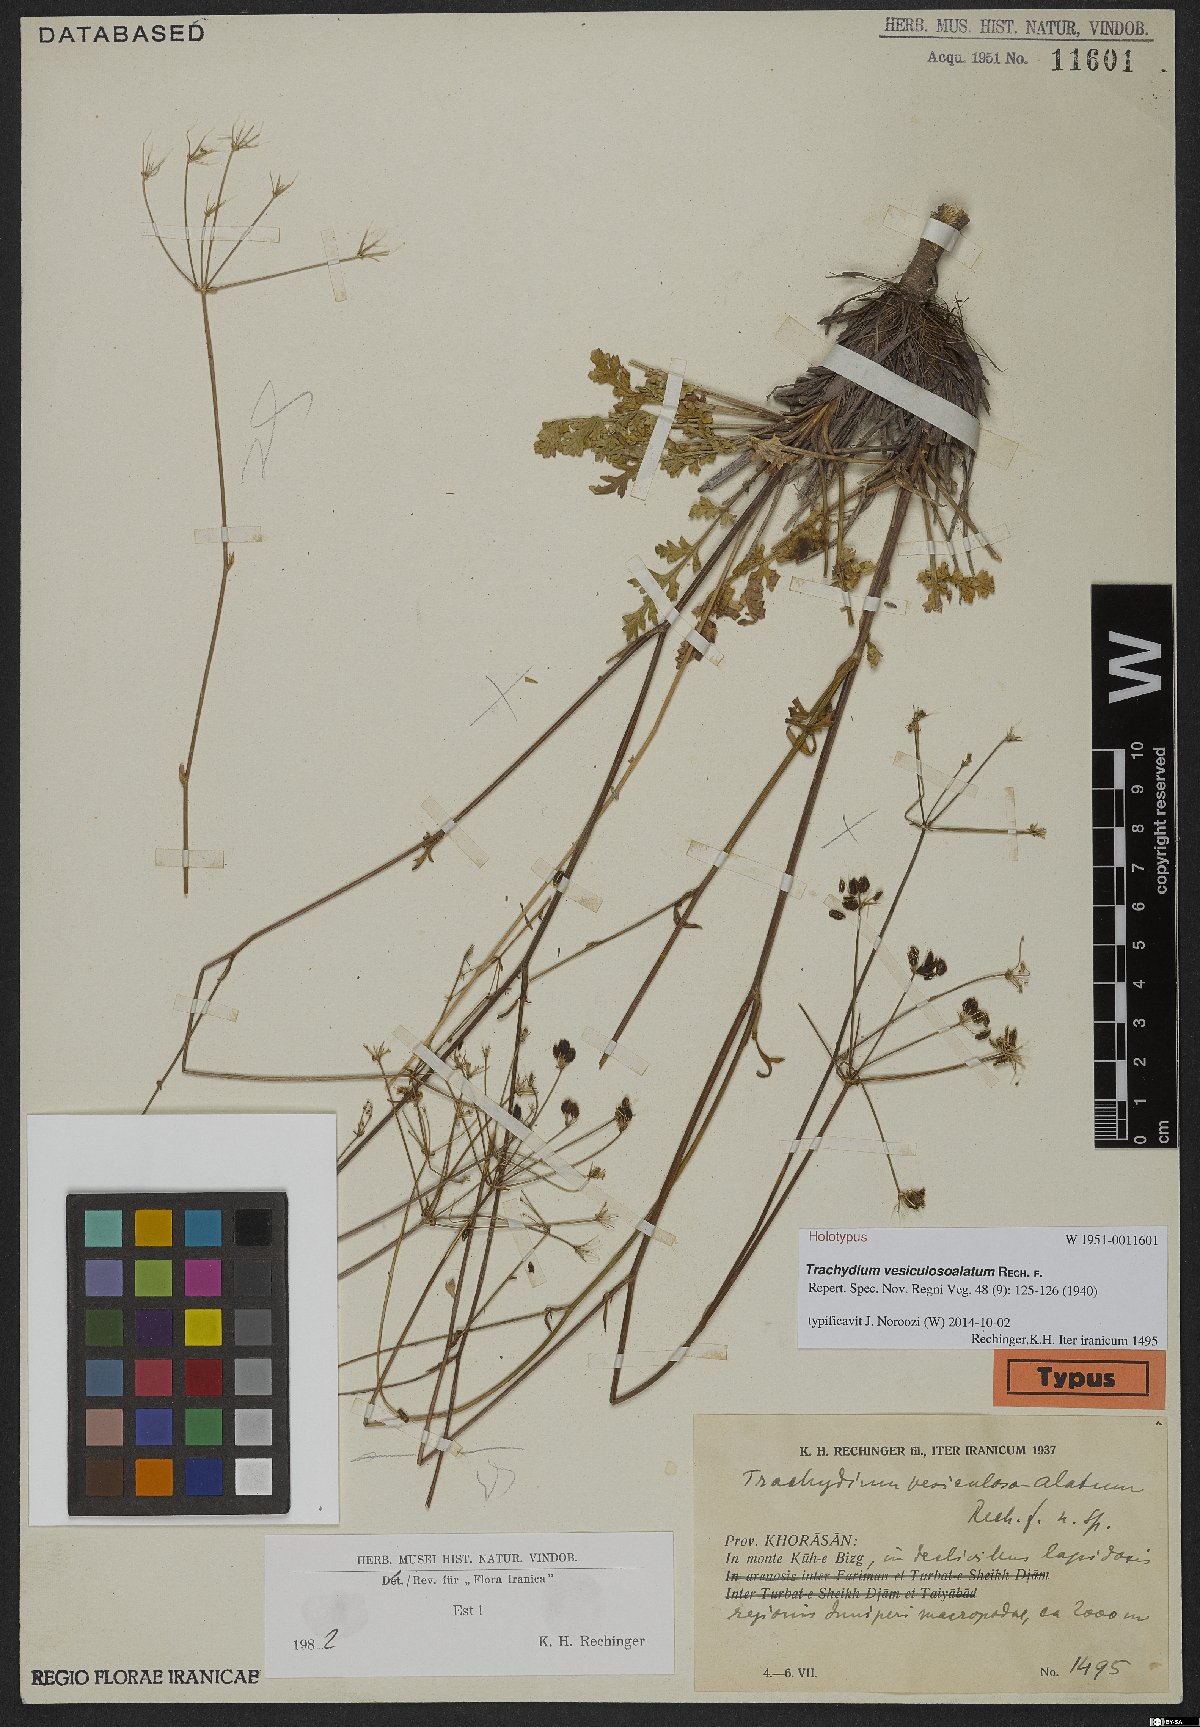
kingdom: Plantae
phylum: Tracheophyta
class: Magnoliopsida
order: Apiales
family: Apiaceae
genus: Pseudotrachydium
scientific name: Pseudotrachydium vesiculosoalatum
